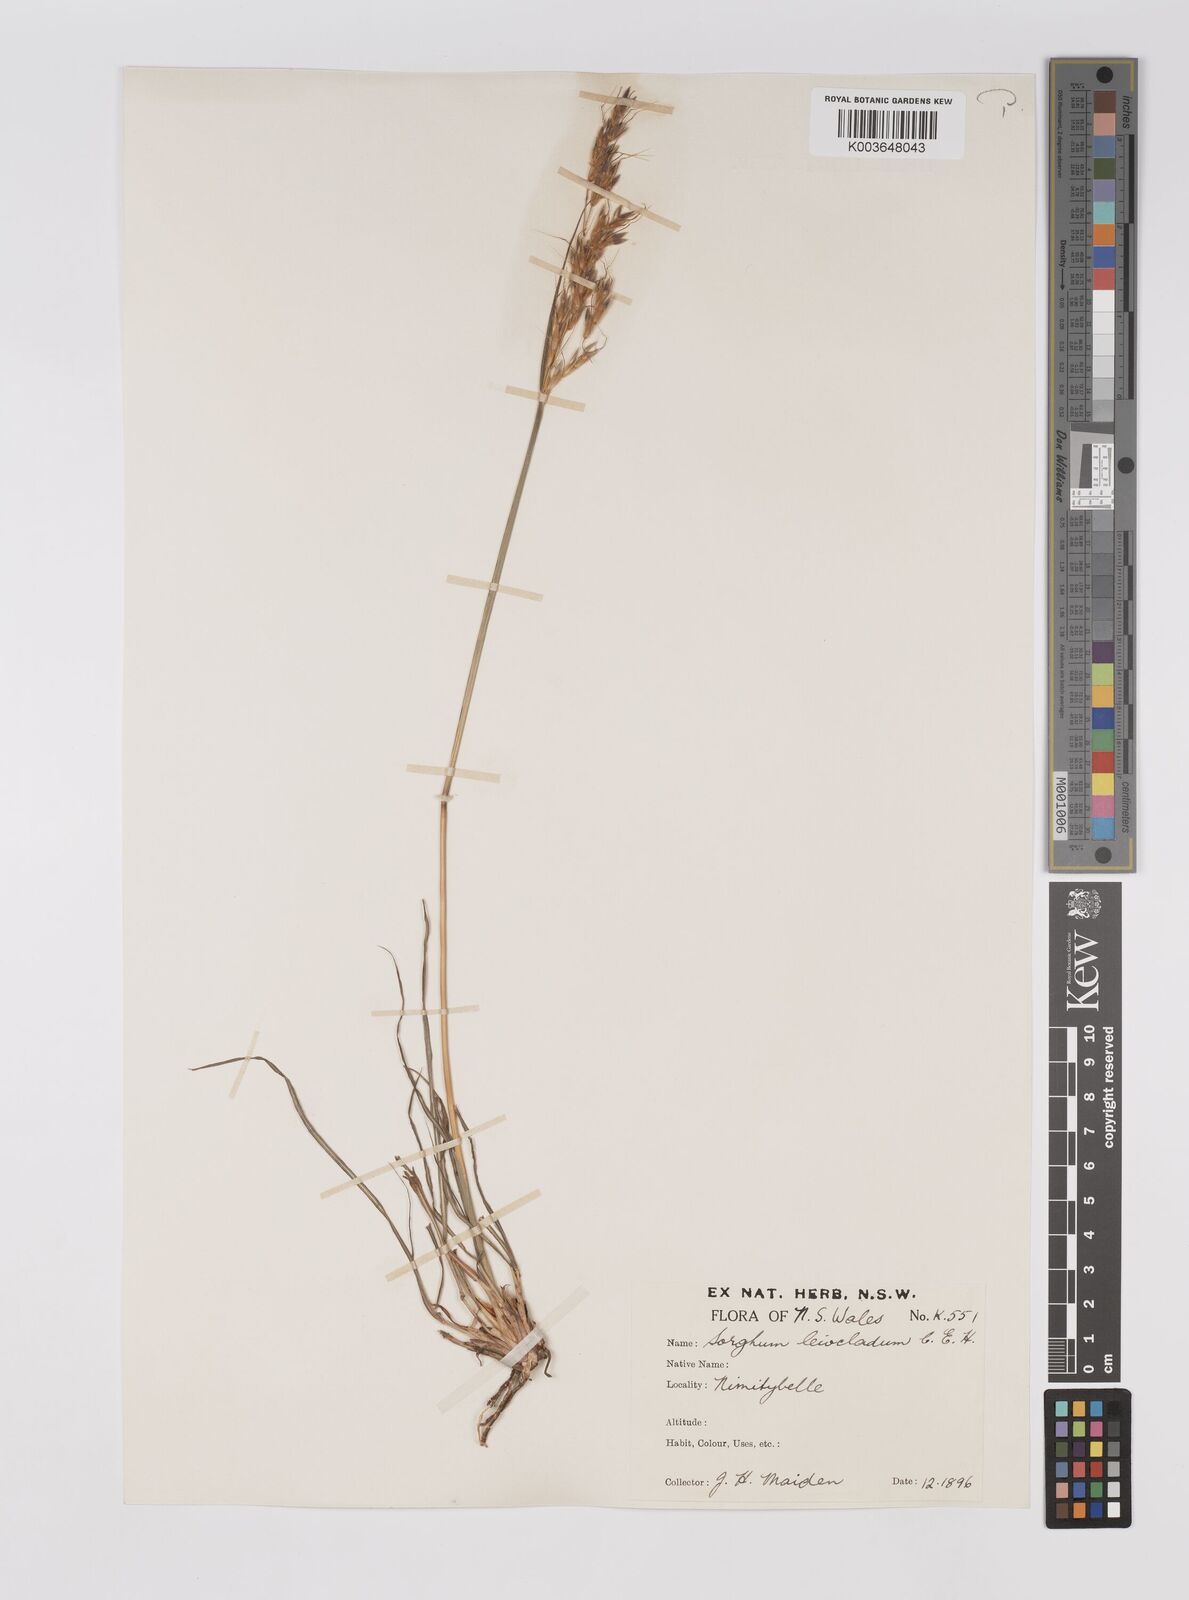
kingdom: Plantae
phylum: Tracheophyta
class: Liliopsida
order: Poales
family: Poaceae
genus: Sarga
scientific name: Sarga leioclada
